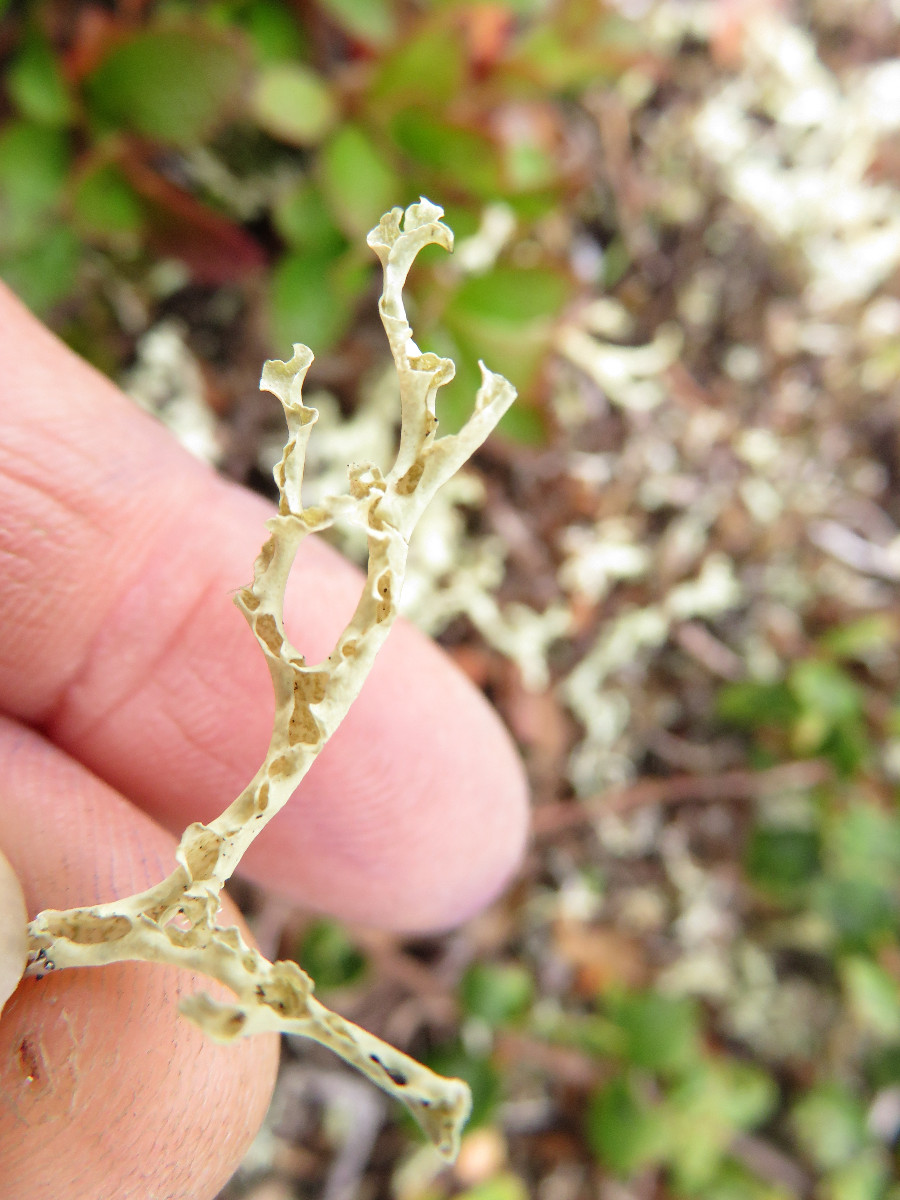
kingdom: Fungi
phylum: Ascomycota
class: Lecanoromycetes
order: Lecanorales
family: Parmeliaceae
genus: Nephromopsis
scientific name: Nephromopsis cucullata
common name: kræmmerhus-kruslav
